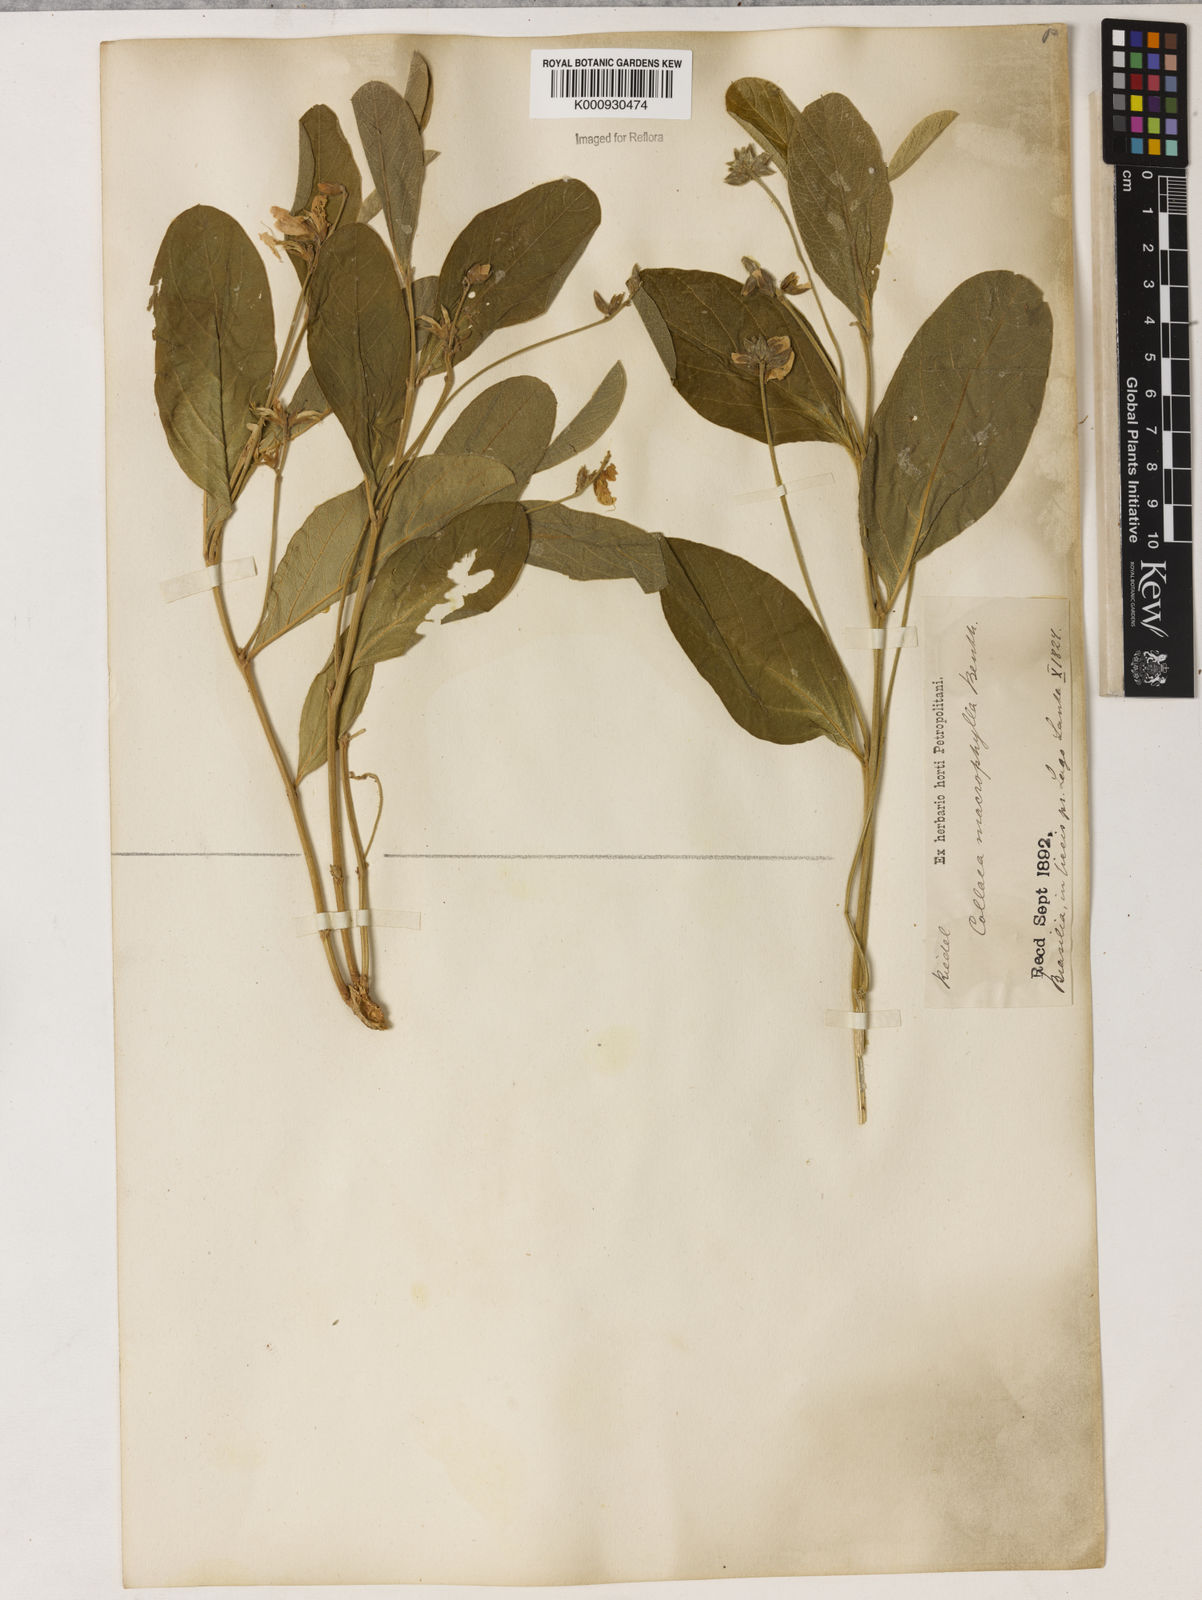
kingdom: Plantae
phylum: Tracheophyta
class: Magnoliopsida
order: Fabales
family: Fabaceae
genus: Cerradicola
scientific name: Cerradicola boavista
